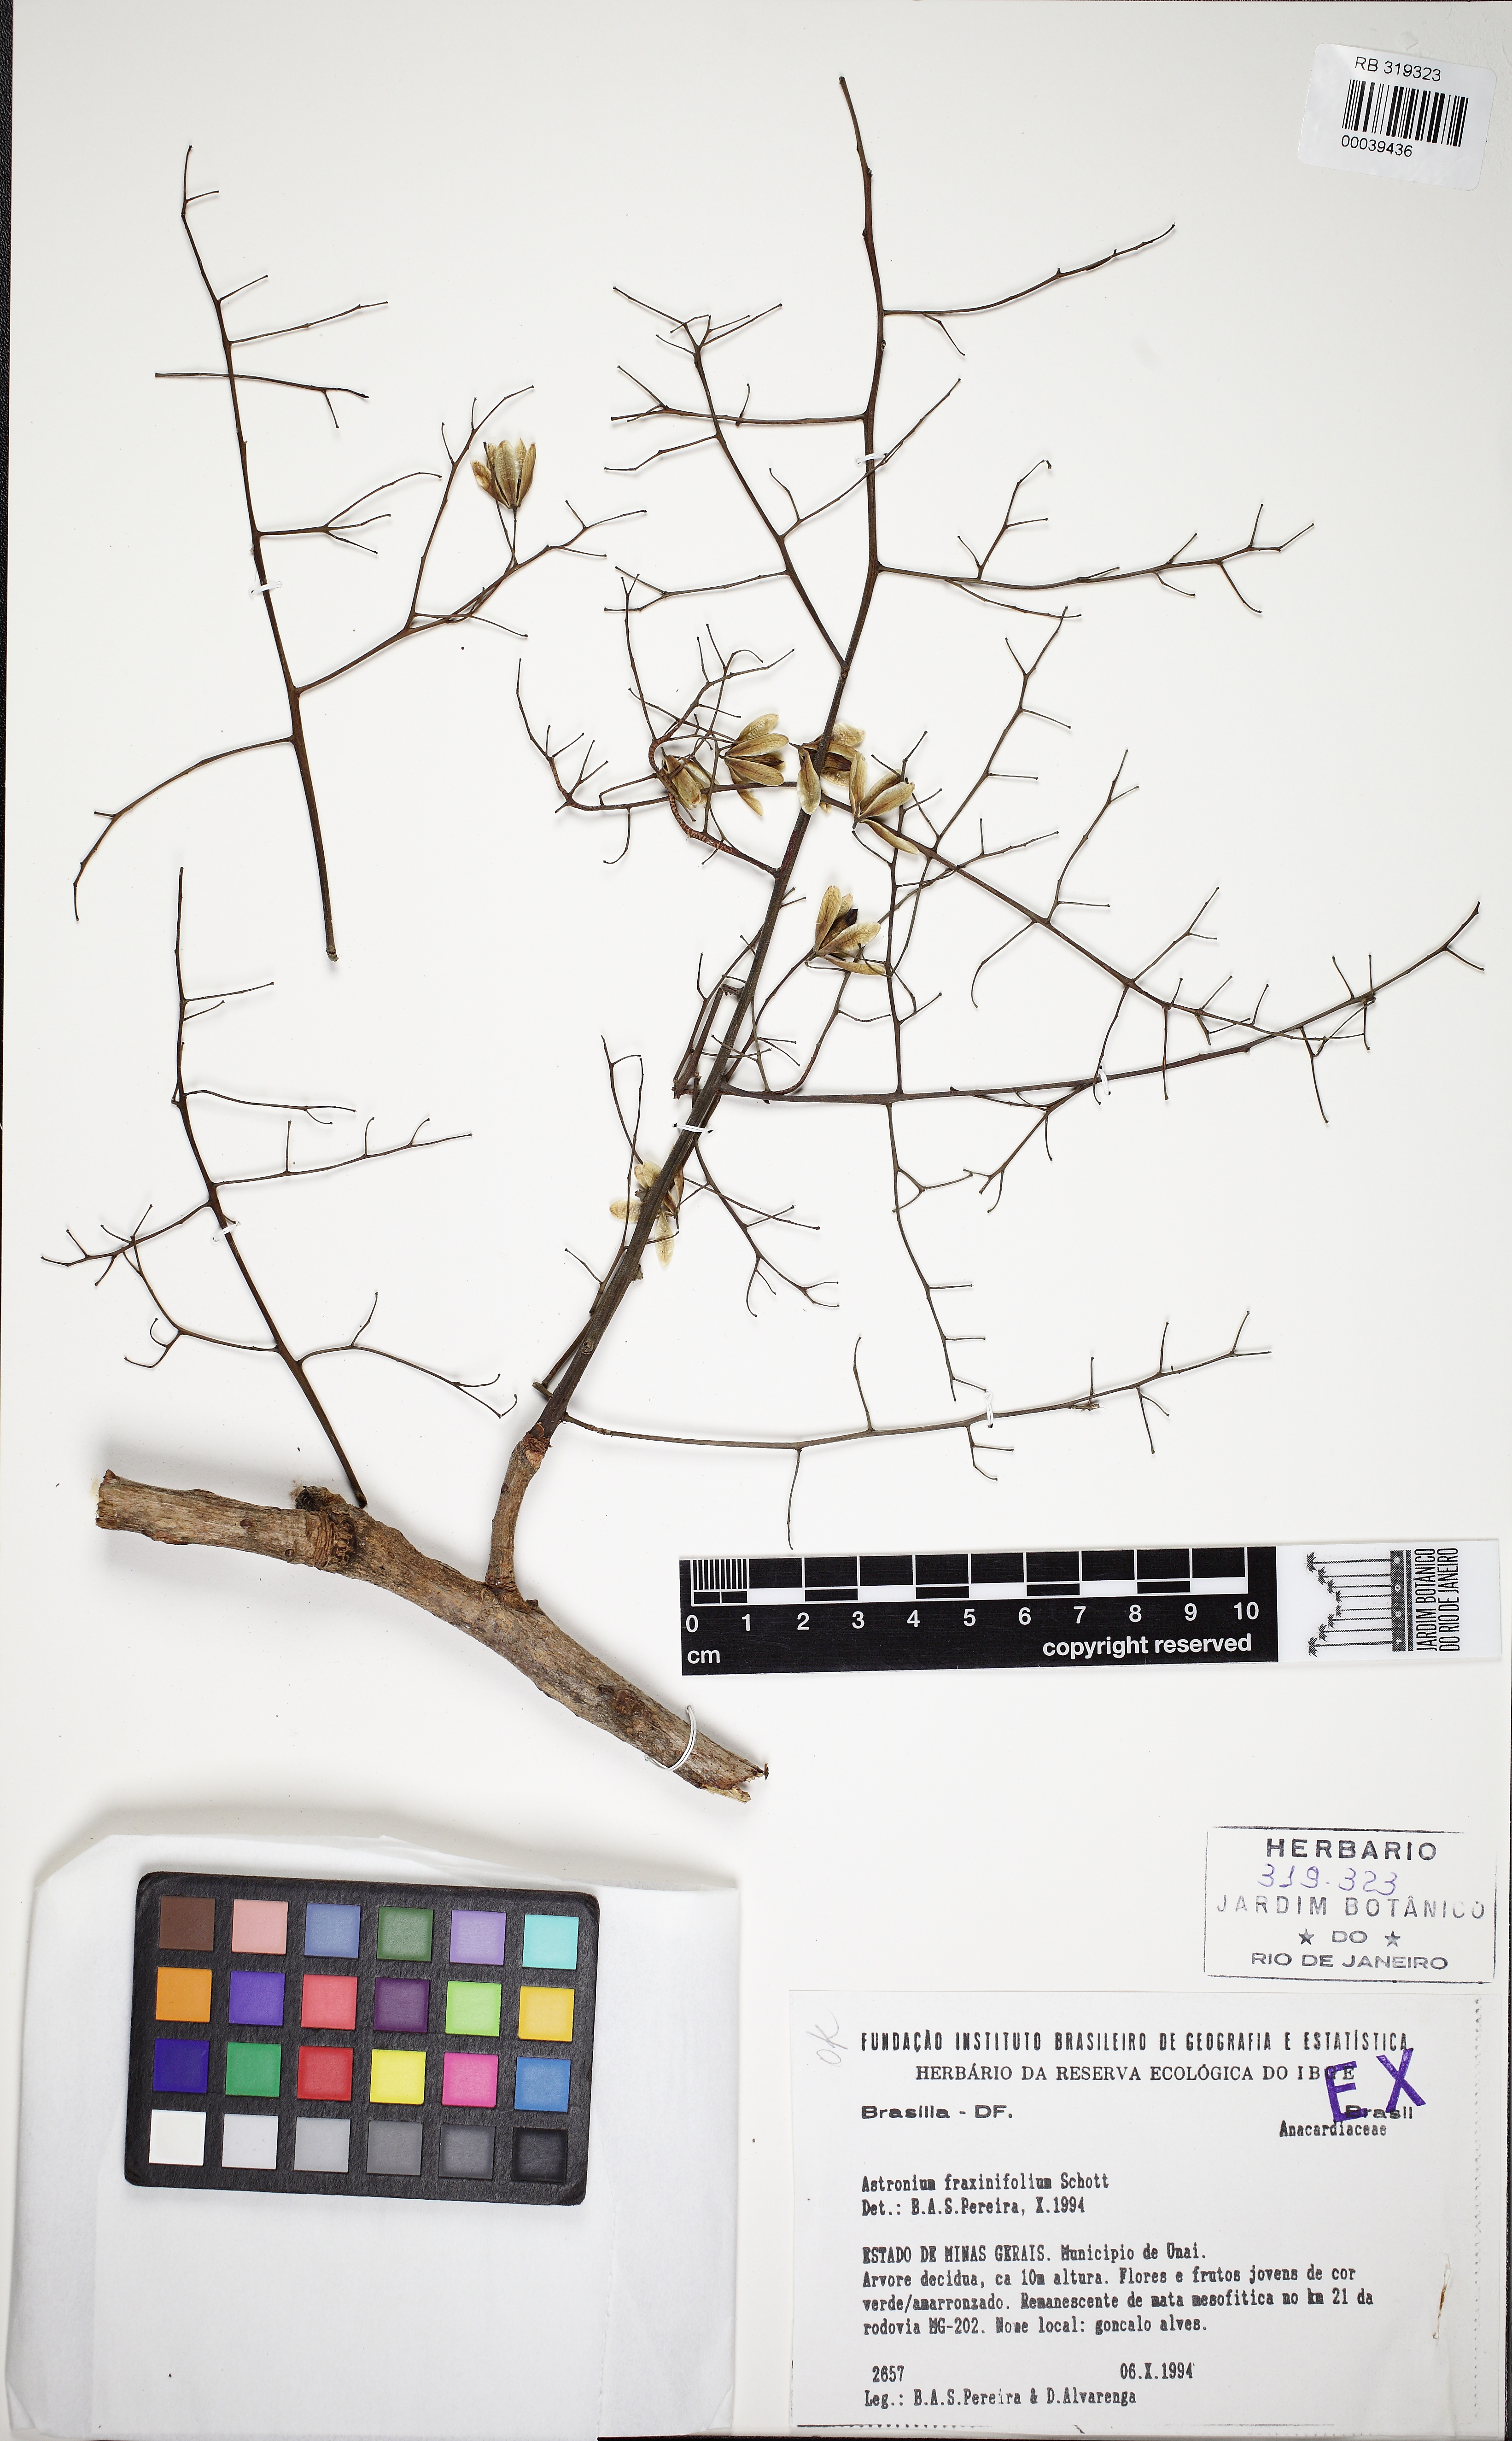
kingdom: Plantae
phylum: Tracheophyta
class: Magnoliopsida
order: Sapindales
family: Anacardiaceae
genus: Astronium
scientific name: Astronium fraxinifolium
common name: Tigerwood
